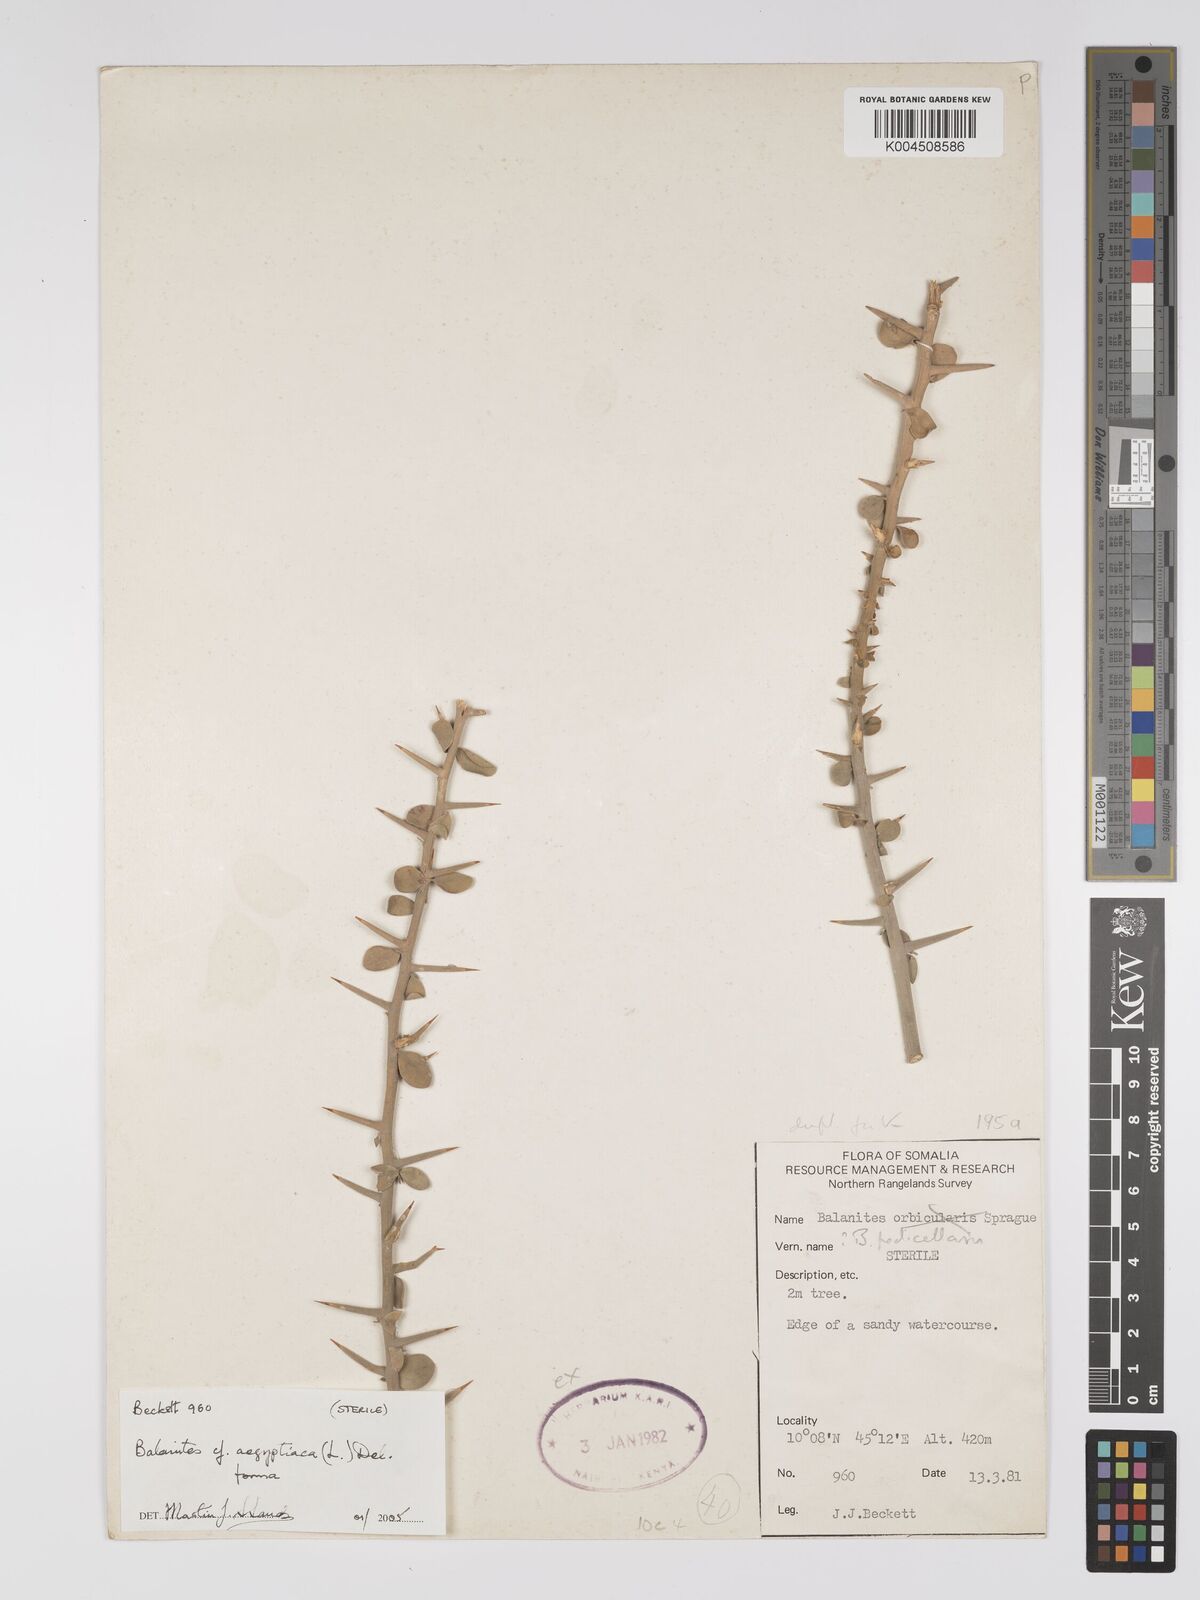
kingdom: Plantae
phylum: Tracheophyta
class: Magnoliopsida
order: Zygophyllales
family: Zygophyllaceae
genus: Balanites
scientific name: Balanites aegyptiaca
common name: Balanites
